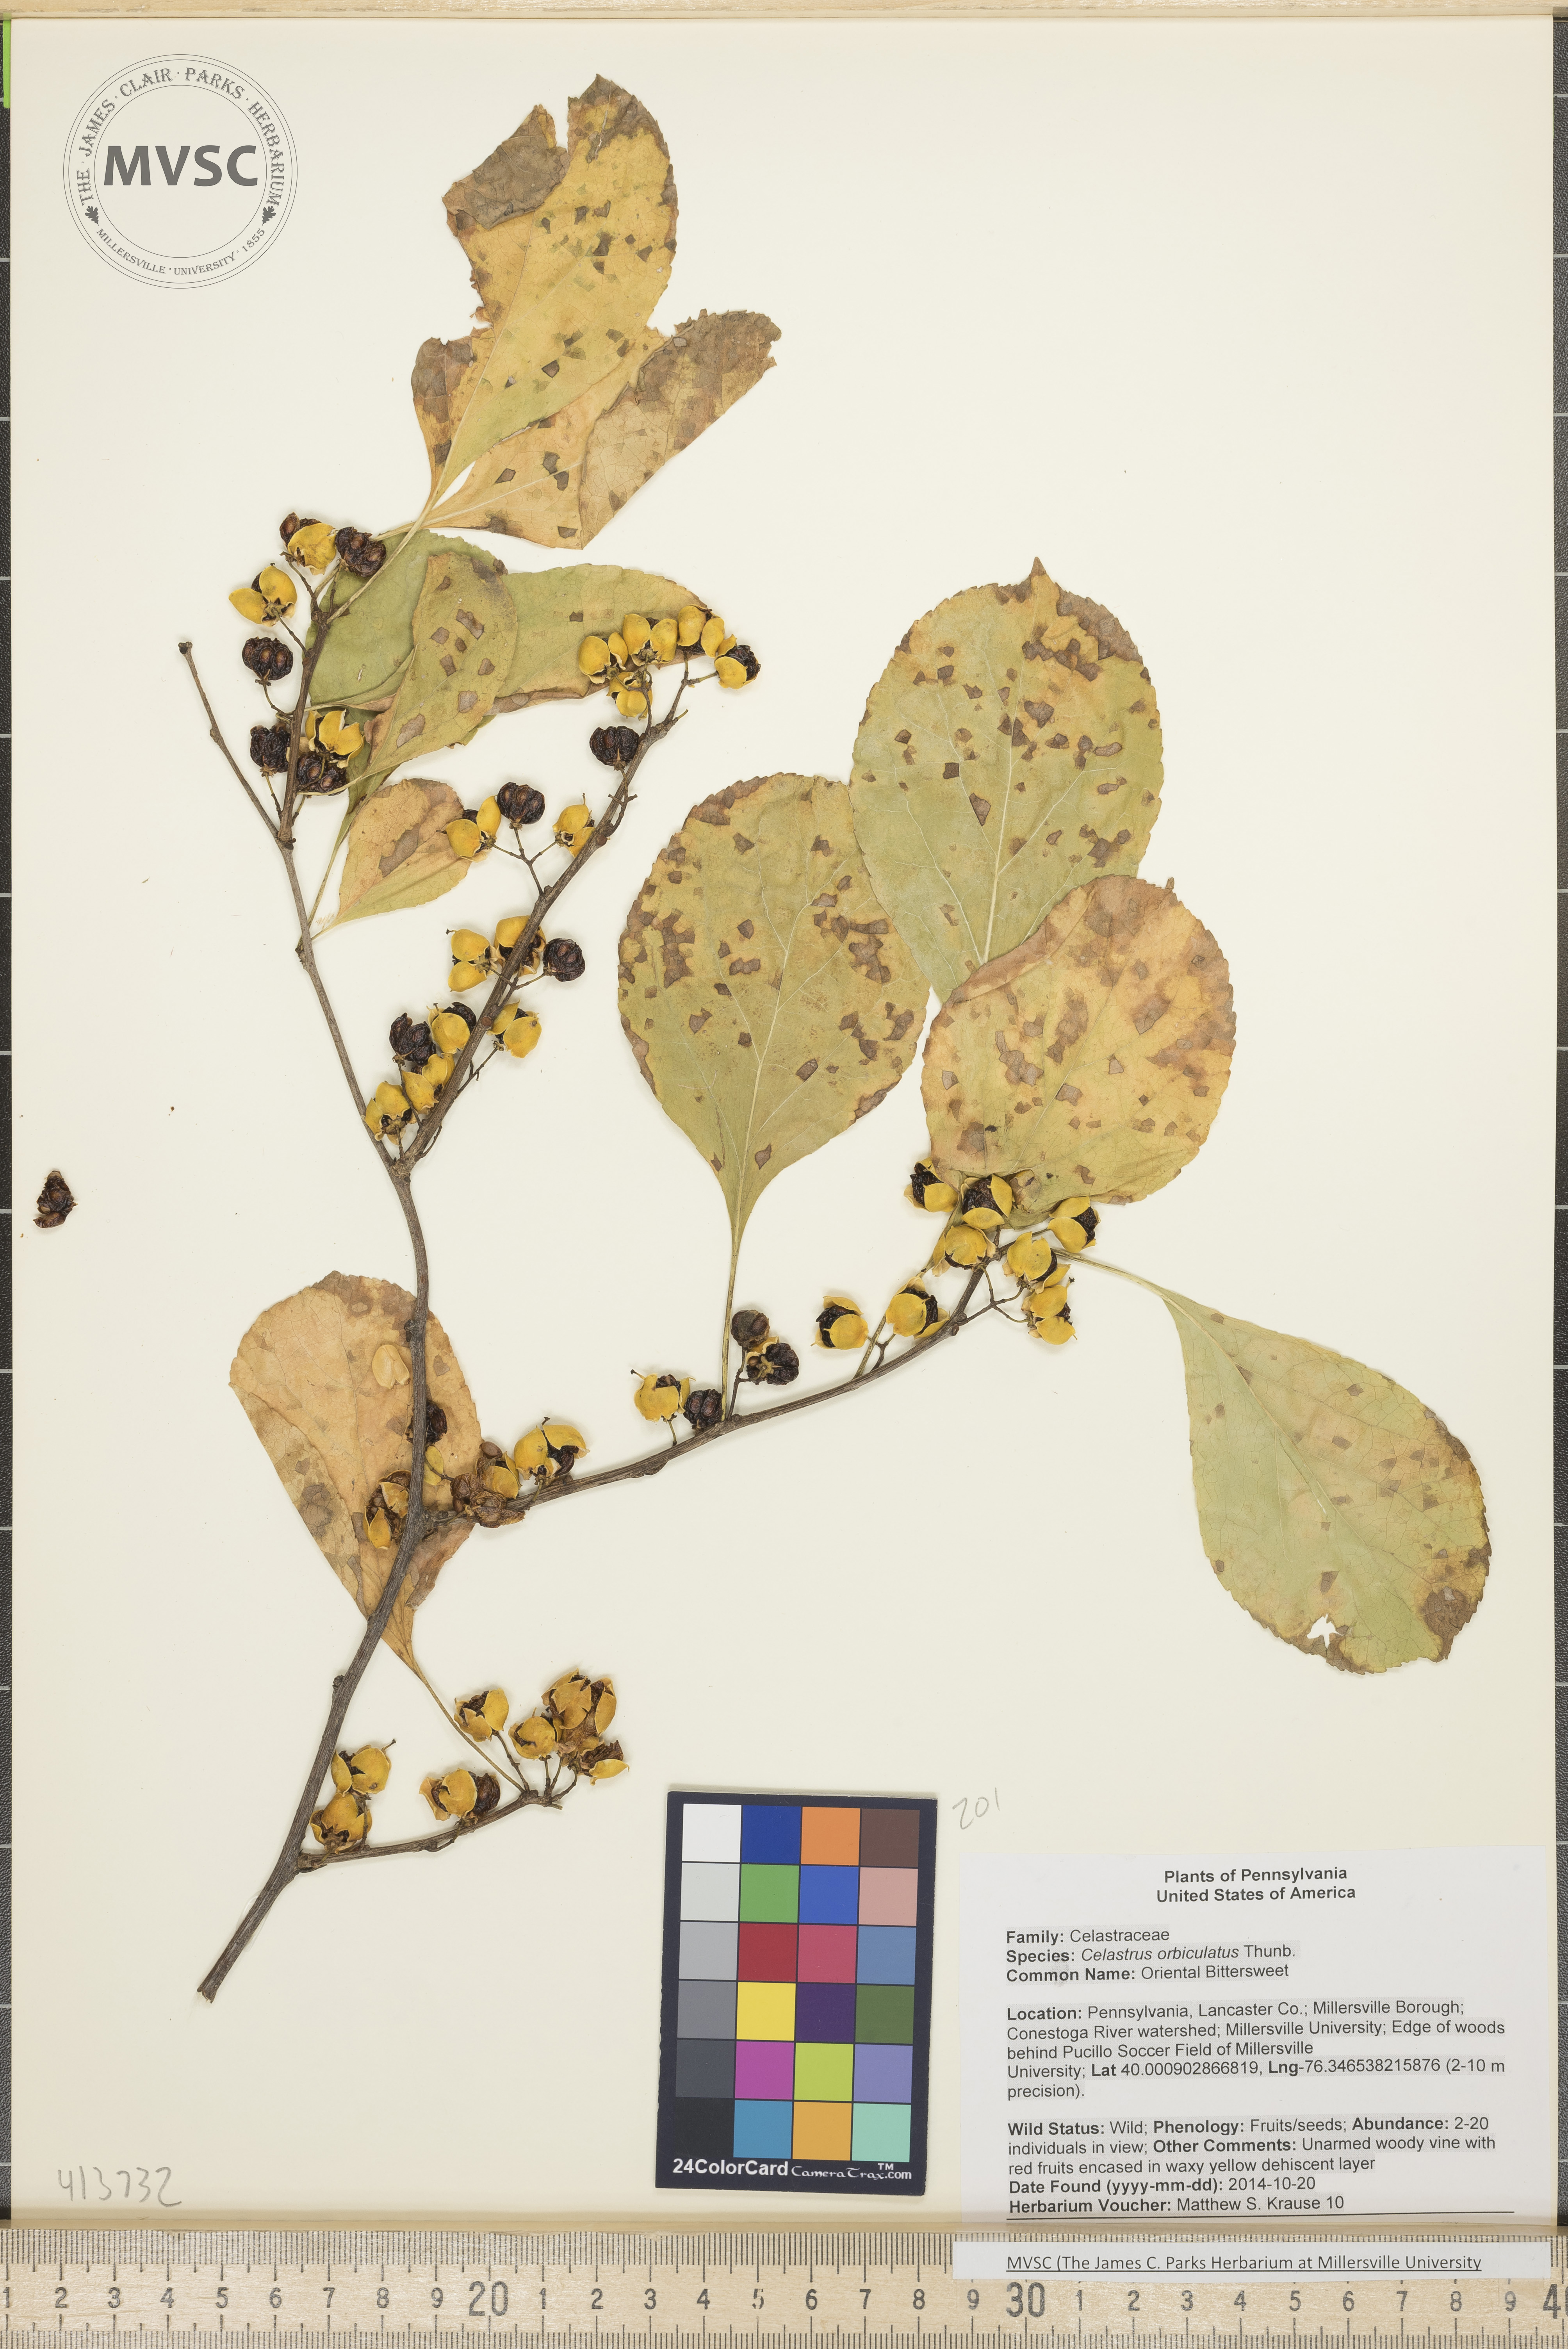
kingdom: Plantae
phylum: Tracheophyta
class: Magnoliopsida
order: Celastrales
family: Celastraceae
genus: Celastrus
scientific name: Celastrus orbiculatus
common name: Oriental Bittersweet
